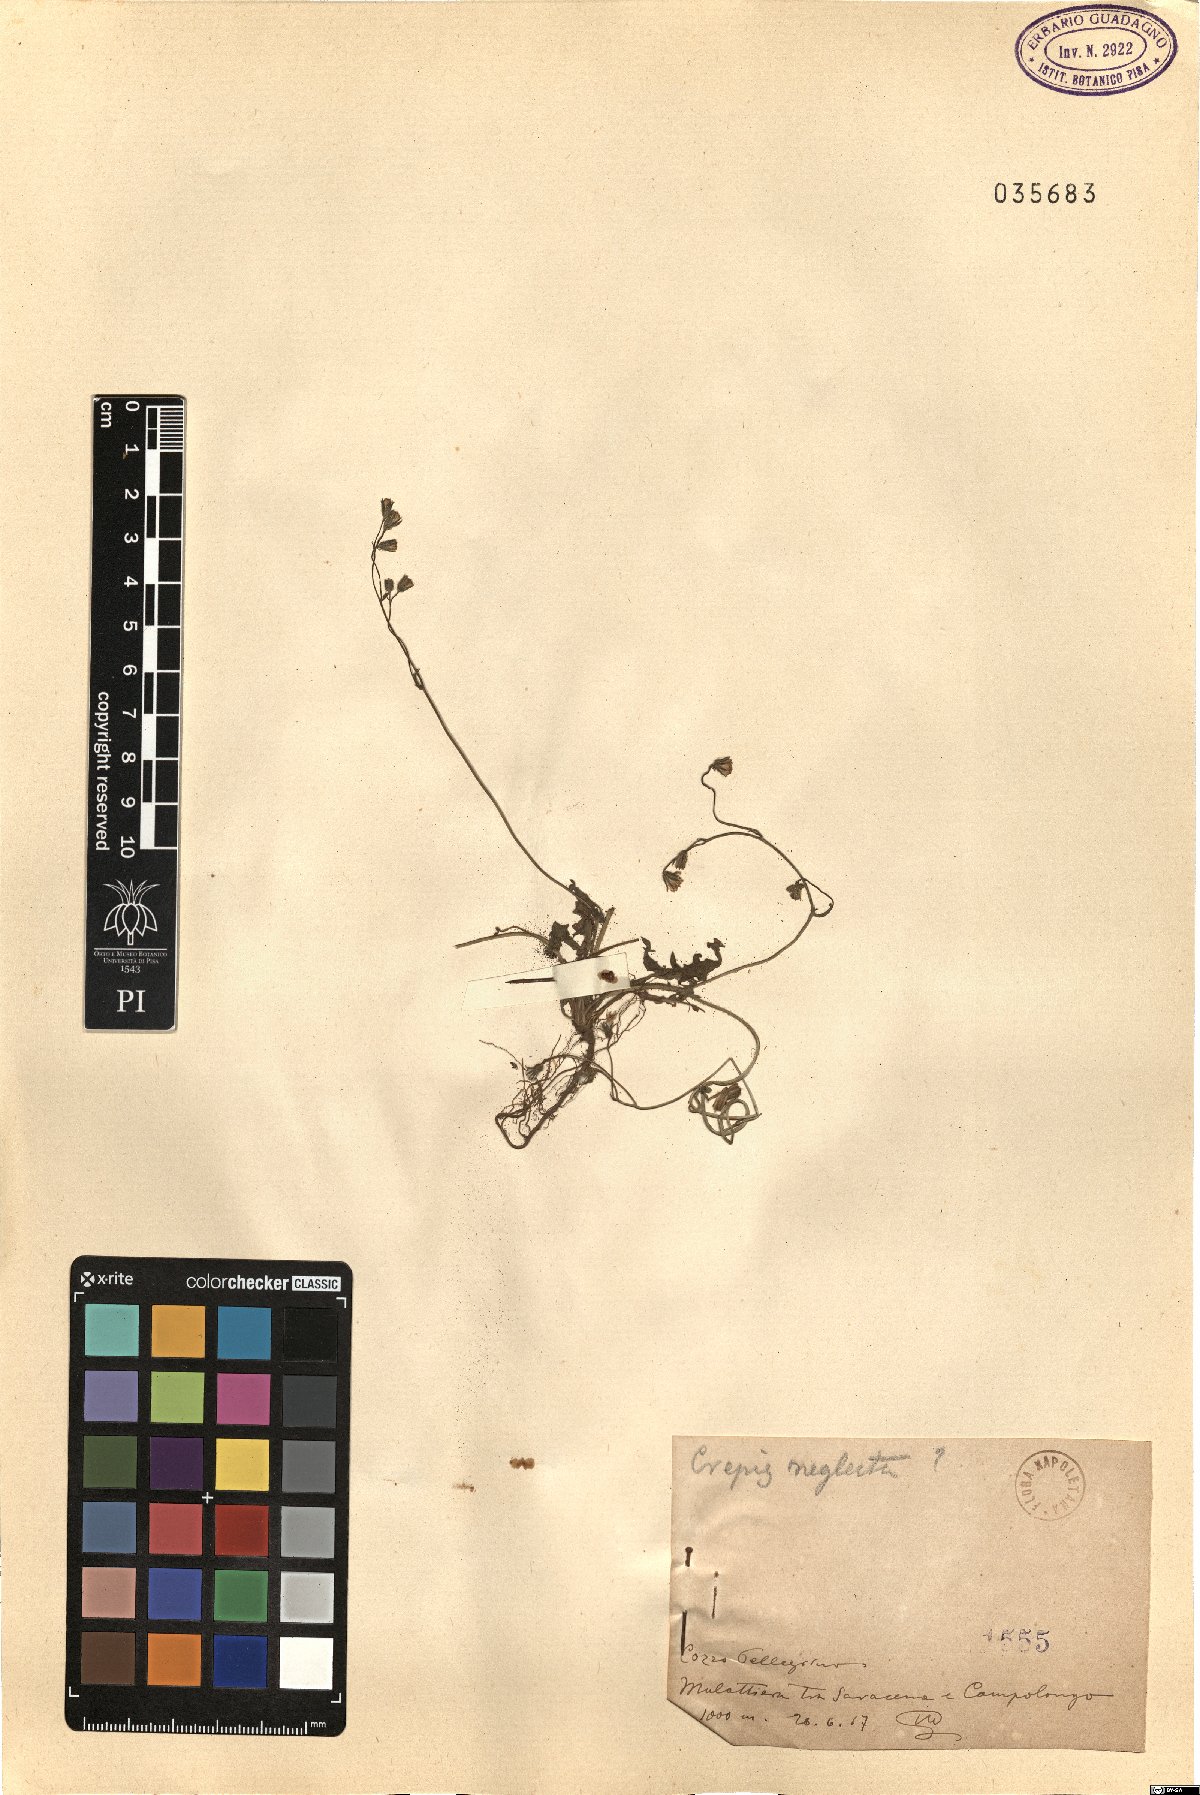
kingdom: Plantae
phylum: Tracheophyta
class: Magnoliopsida
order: Asterales
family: Asteraceae
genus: Crepis
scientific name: Crepis neglecta
